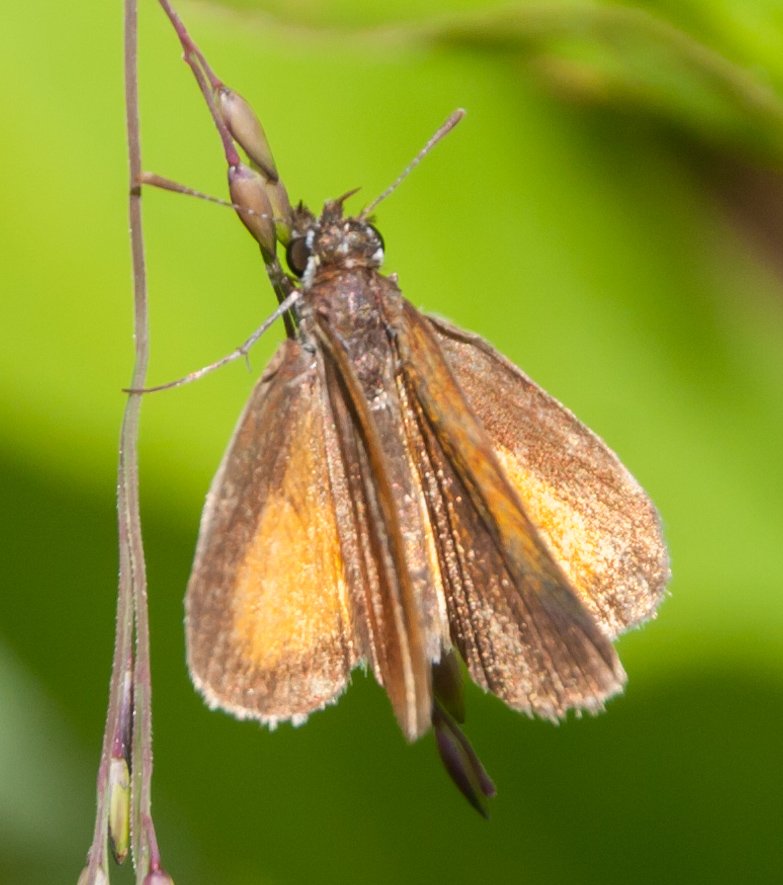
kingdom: Animalia
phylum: Arthropoda
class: Insecta
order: Lepidoptera
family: Hesperiidae
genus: Ancyloxypha
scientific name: Ancyloxypha numitor
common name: Least Skipper
